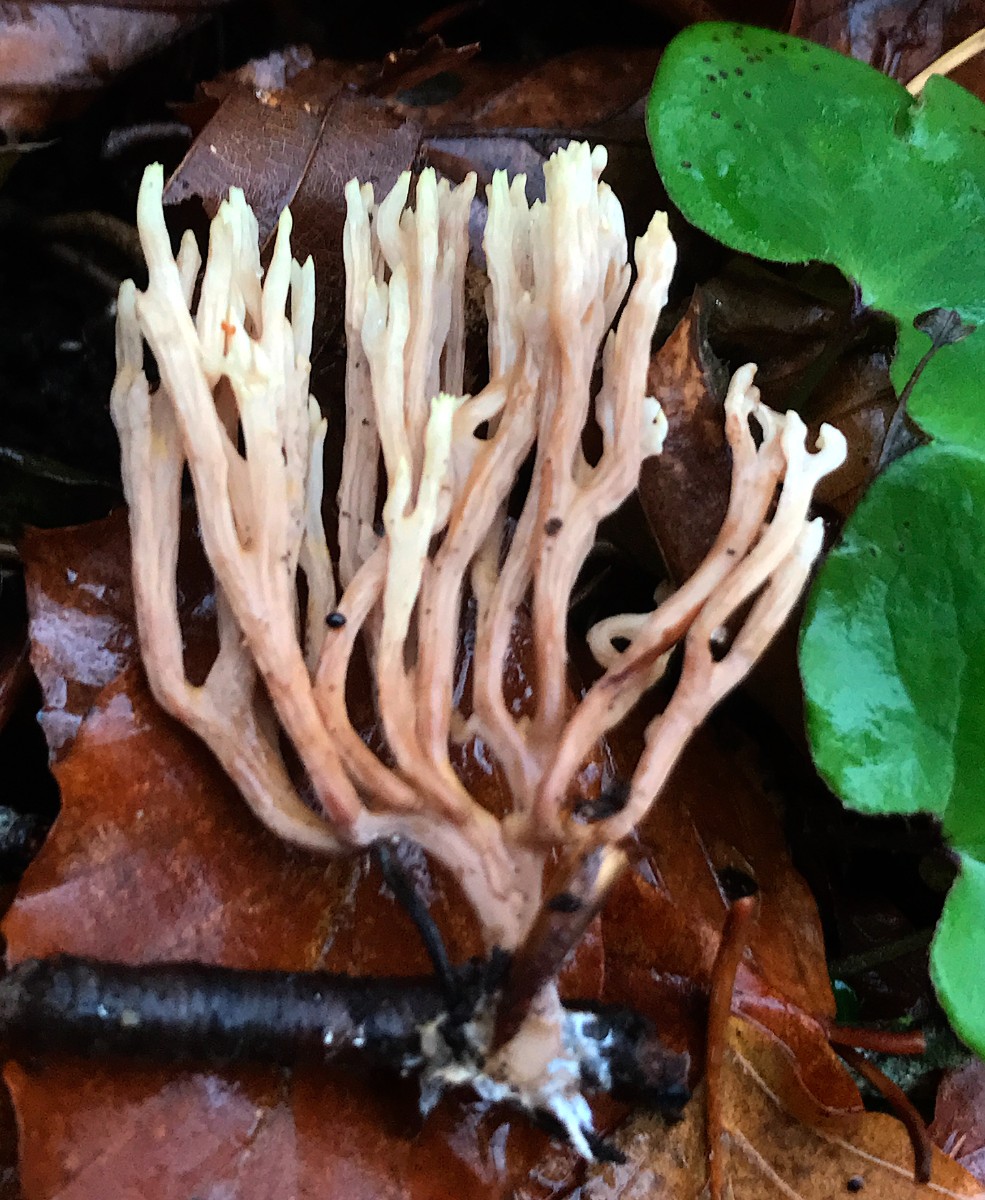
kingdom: Fungi
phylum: Basidiomycota
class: Agaricomycetes
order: Gomphales
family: Gomphaceae
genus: Ramaria
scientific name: Ramaria stricta
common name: rank koralsvamp
